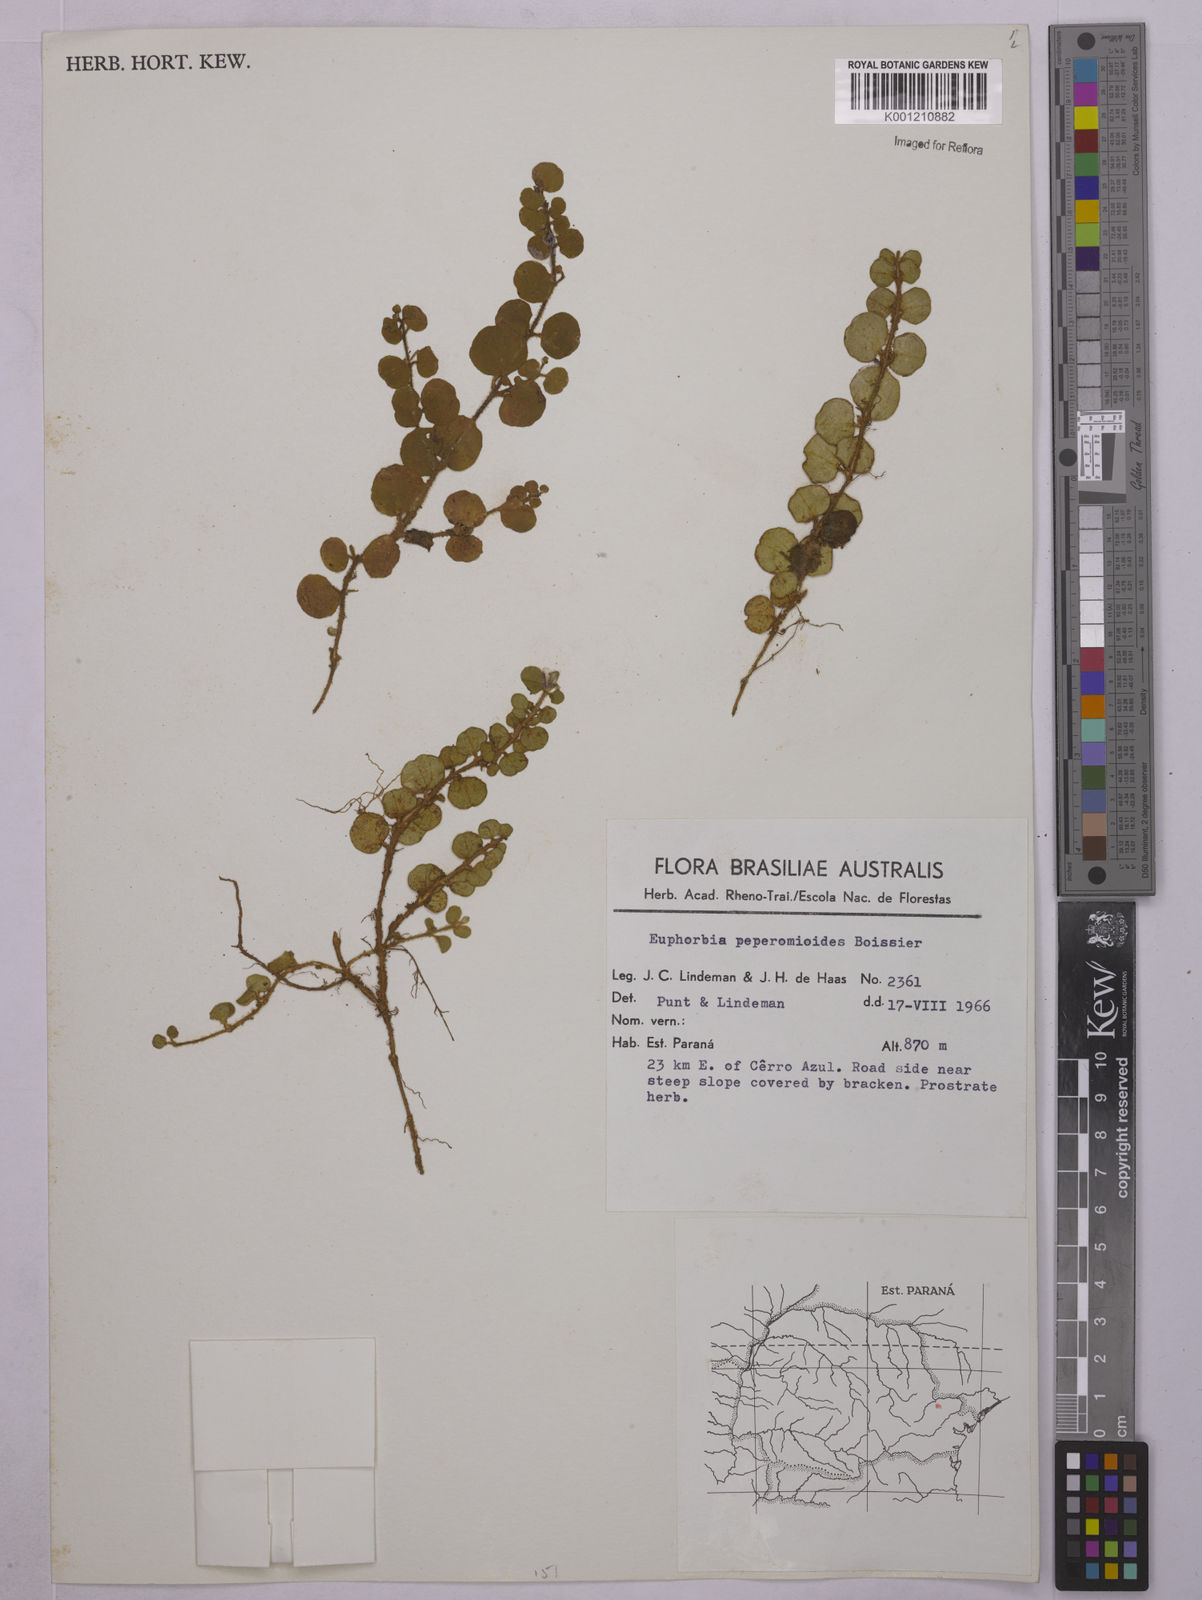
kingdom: Plantae
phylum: Tracheophyta
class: Magnoliopsida
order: Malpighiales
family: Euphorbiaceae
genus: Euphorbia
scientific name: Euphorbia peperomioides
